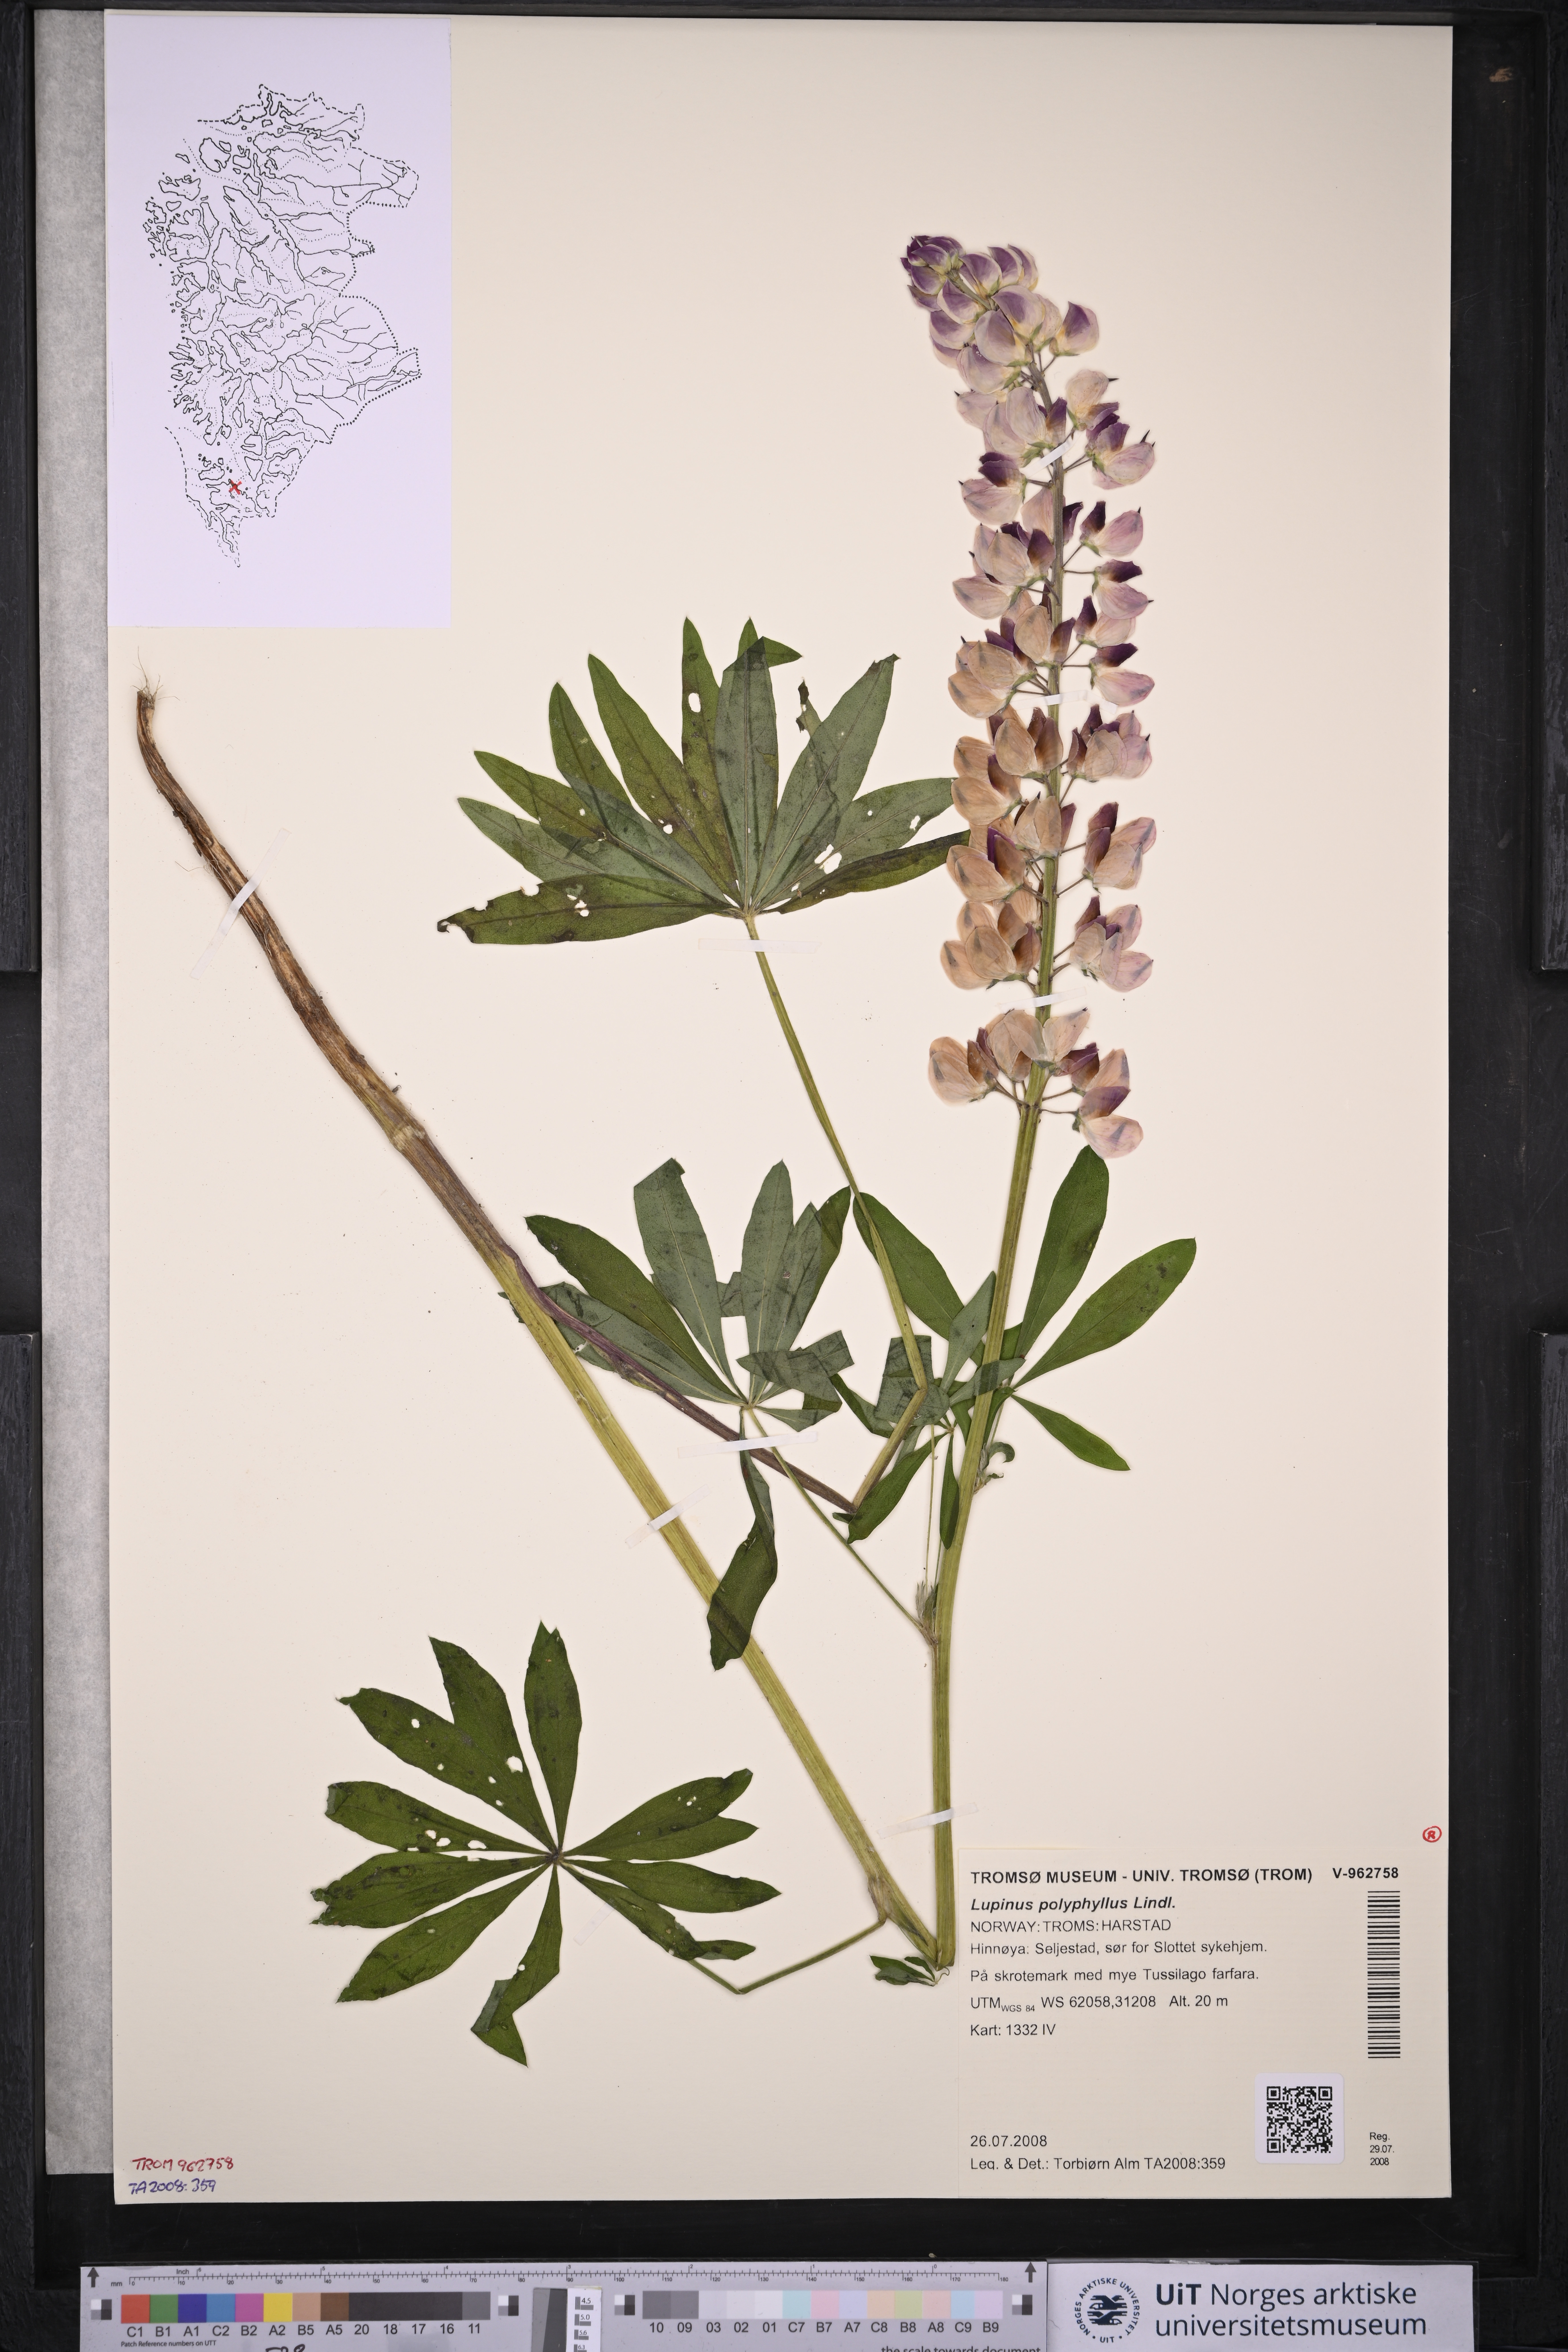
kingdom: Plantae
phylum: Tracheophyta
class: Magnoliopsida
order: Fabales
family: Fabaceae
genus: Lupinus
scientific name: Lupinus polyphyllus
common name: Garden lupin
